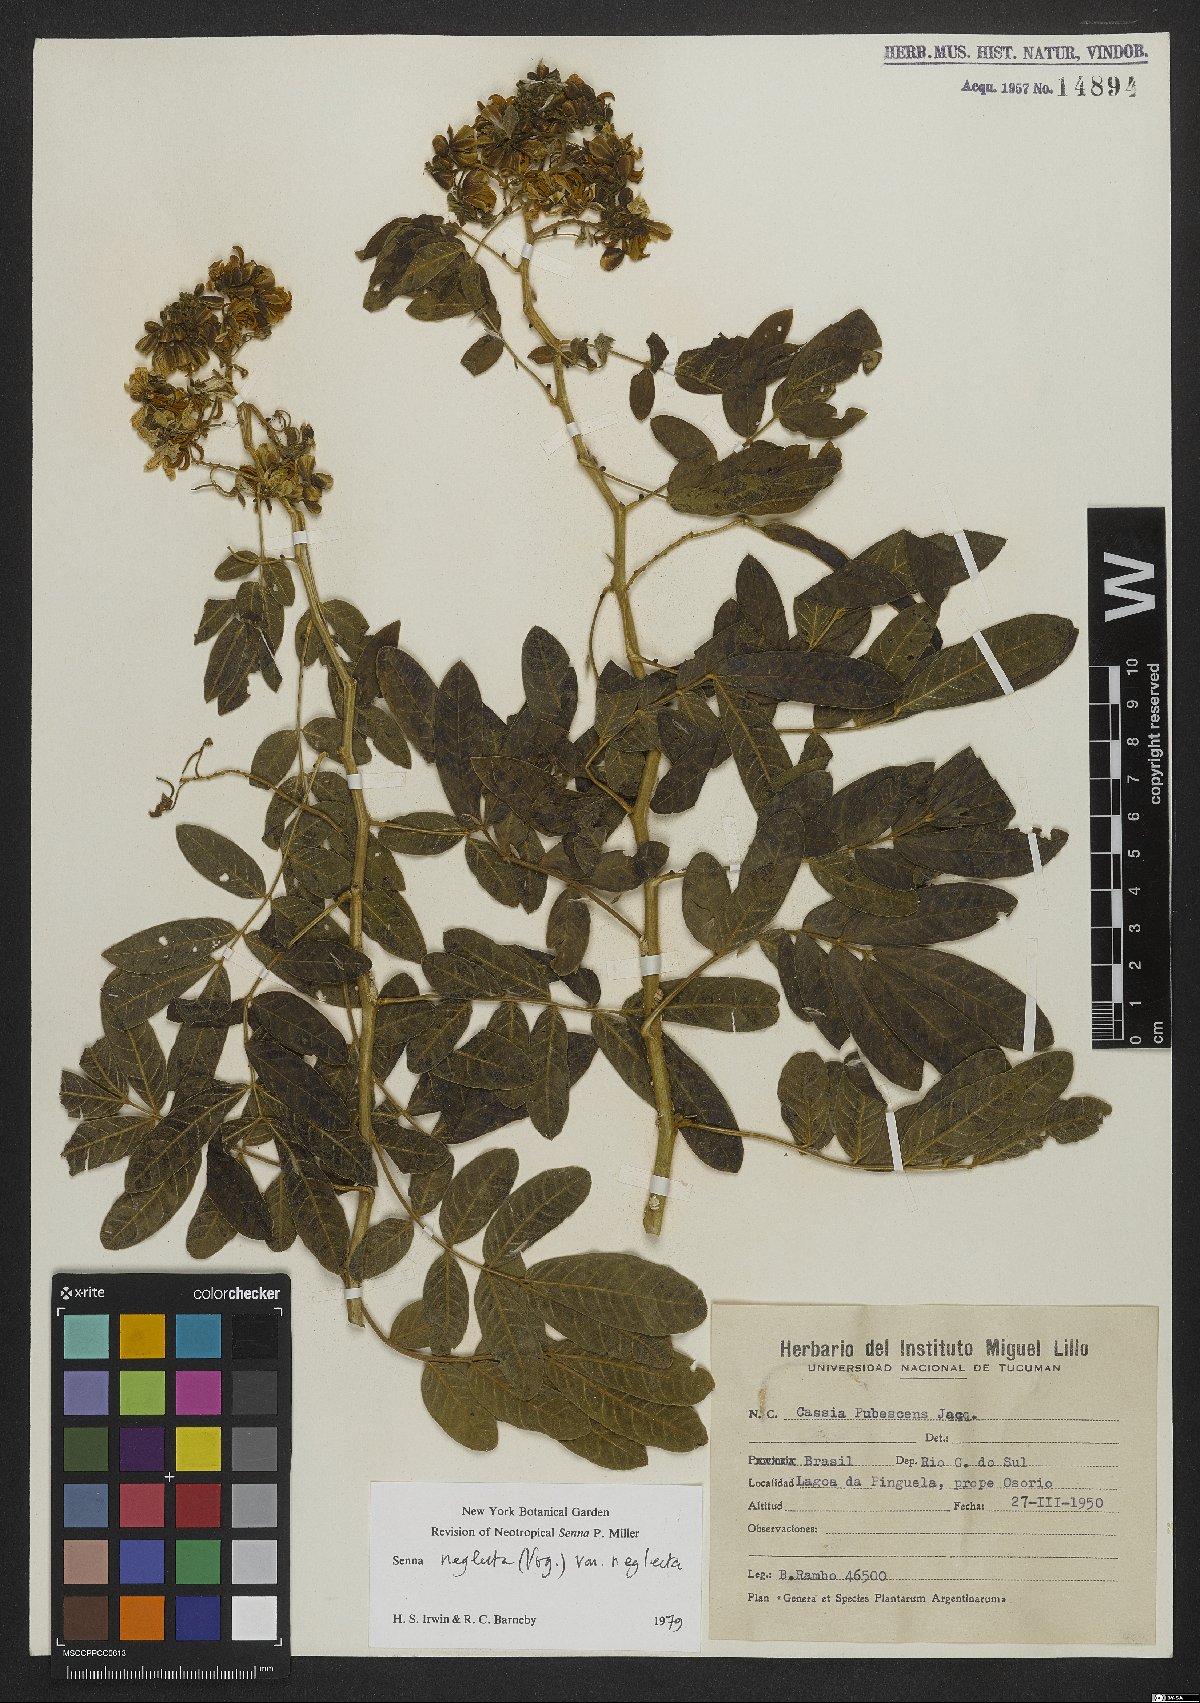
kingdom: Plantae
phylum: Tracheophyta
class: Magnoliopsida
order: Fabales
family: Fabaceae
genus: Senna
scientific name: Senna neglecta
